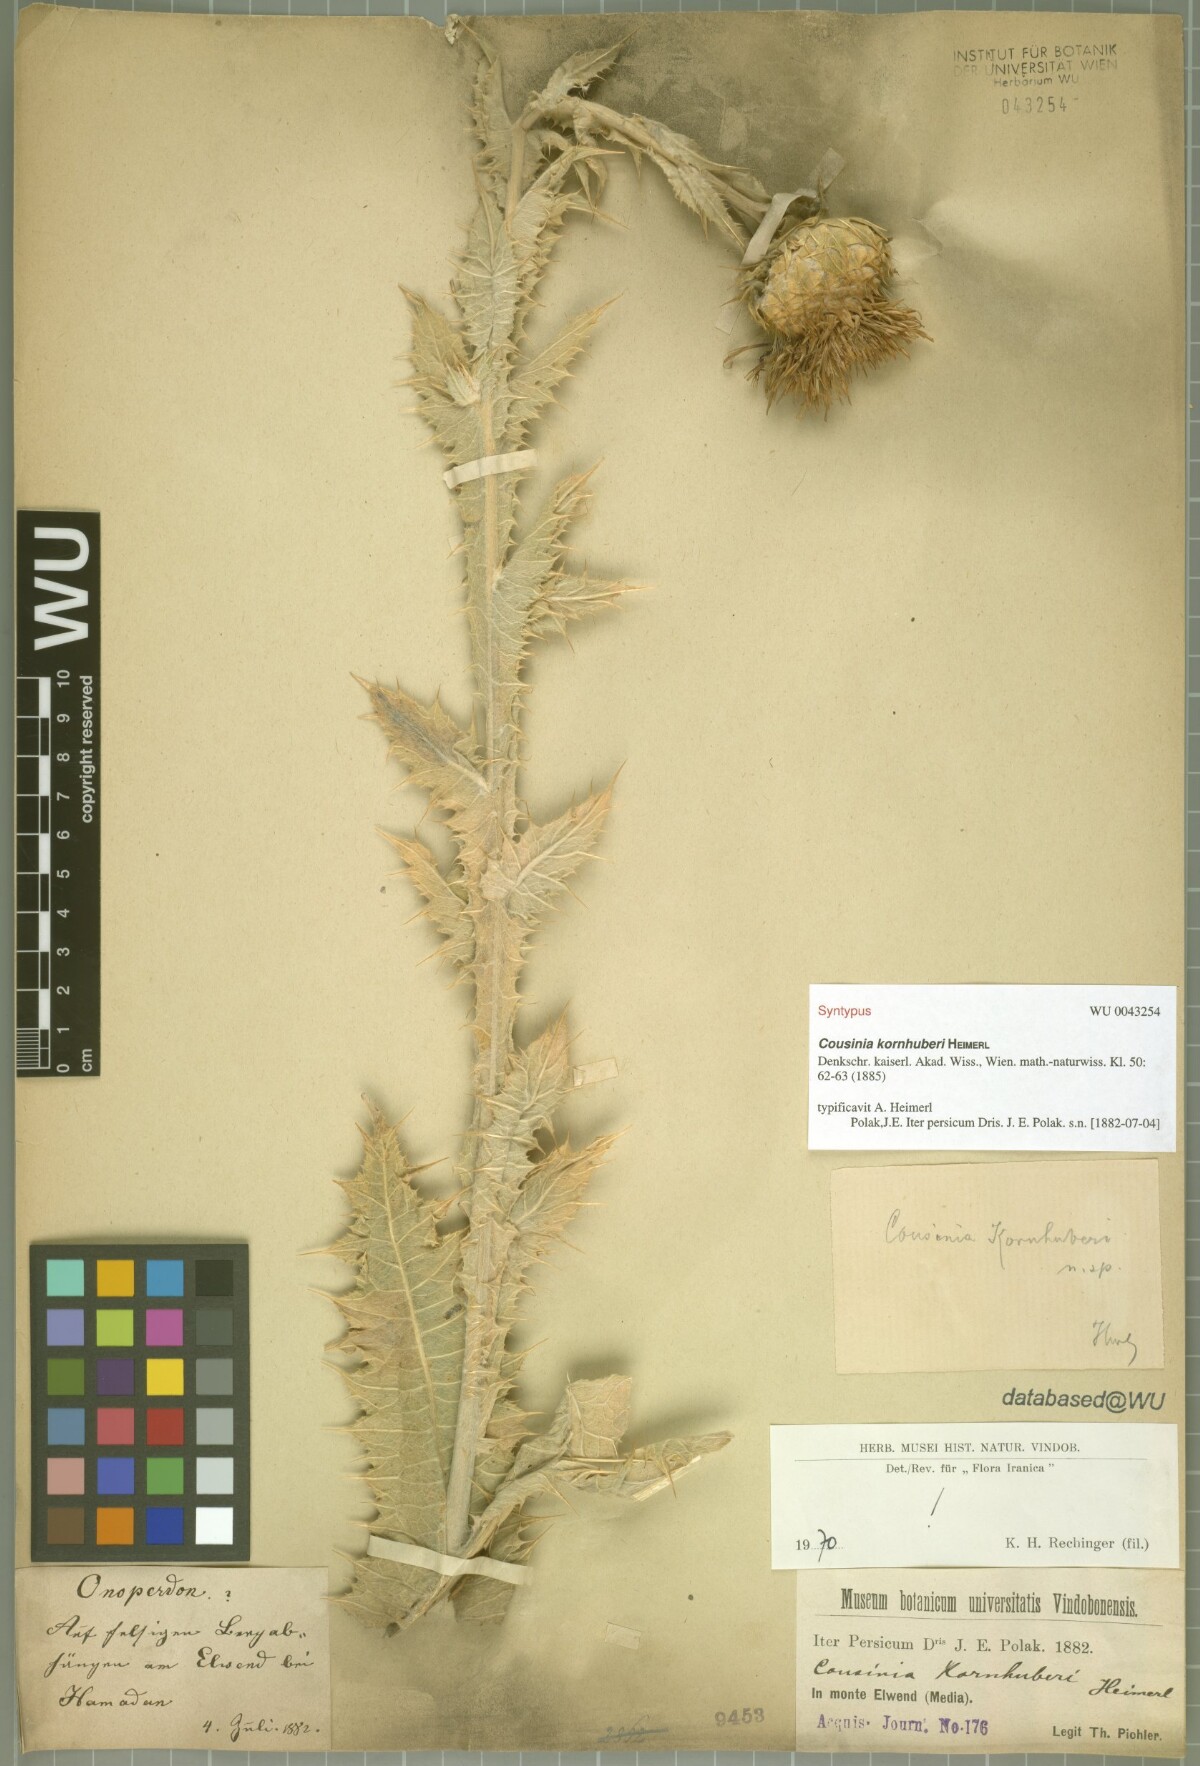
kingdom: Plantae
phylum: Tracheophyta
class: Magnoliopsida
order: Asterales
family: Asteraceae
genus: Cousinia
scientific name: Cousinia kornhuberi
